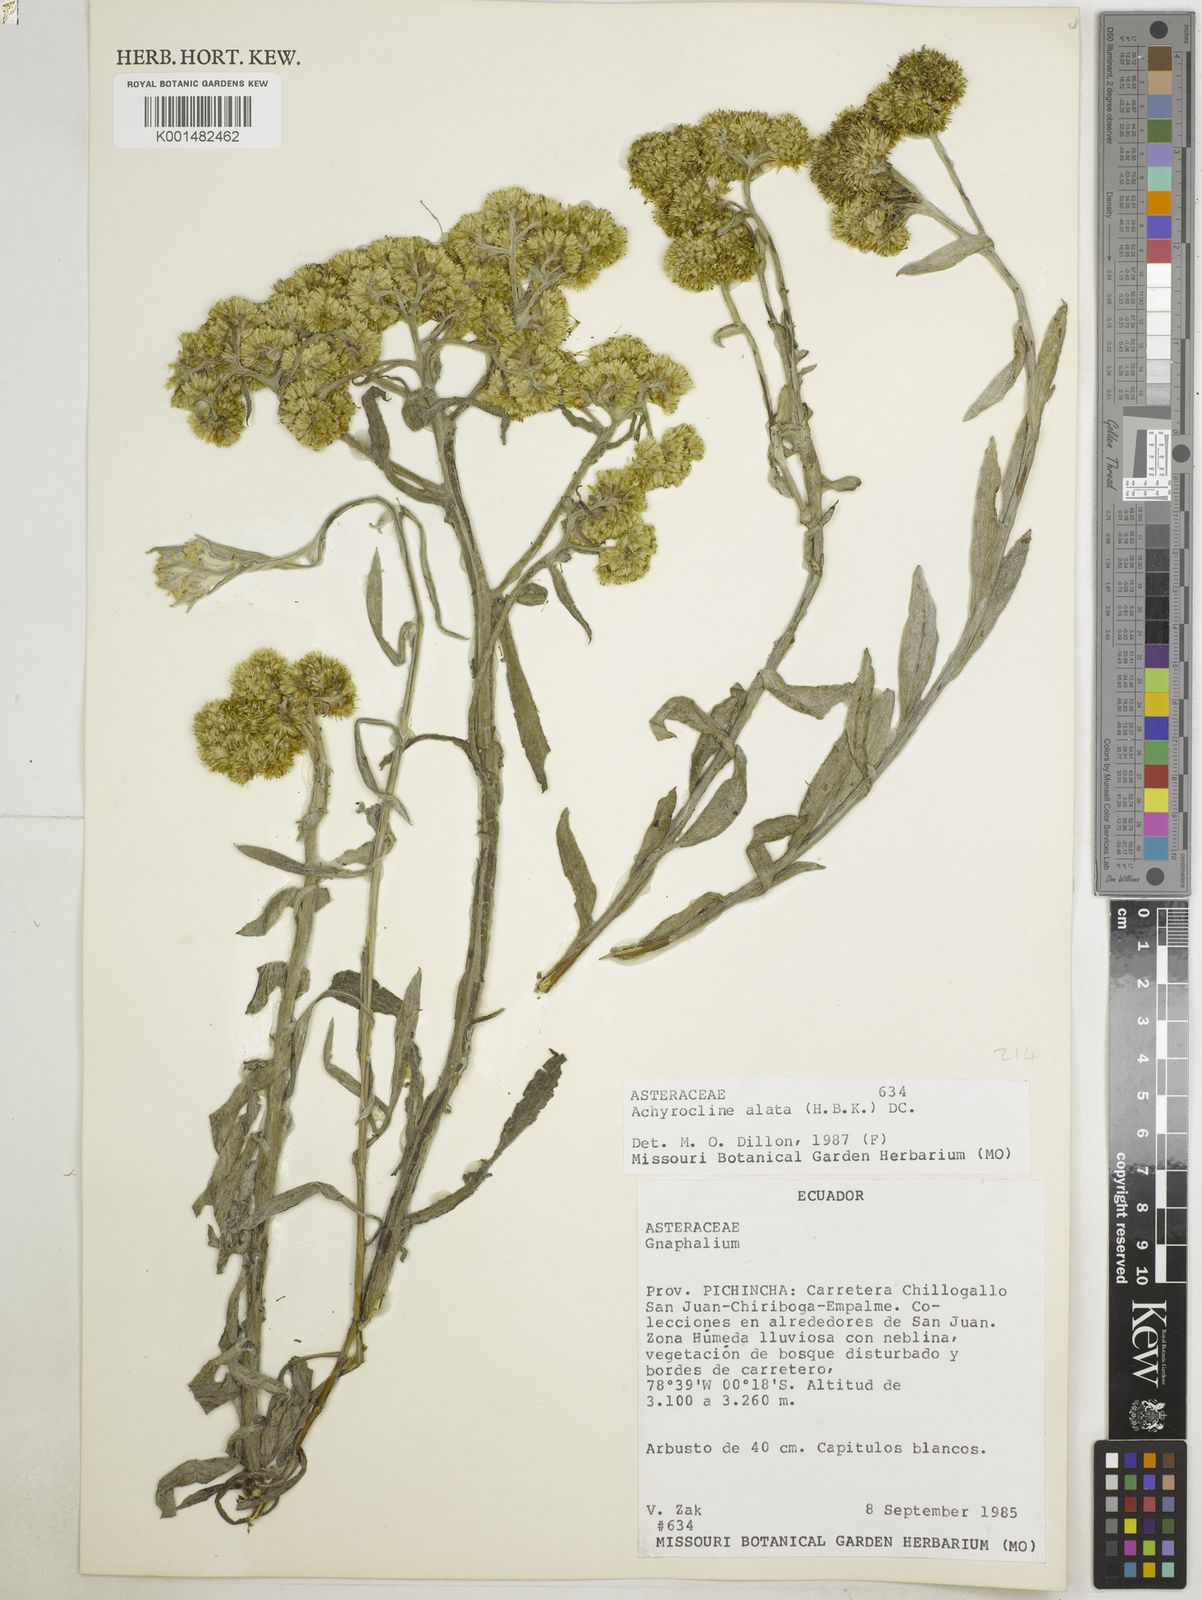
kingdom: Plantae
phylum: Tracheophyta
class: Magnoliopsida
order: Asterales
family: Asteraceae
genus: Achyrocline
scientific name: Achyrocline alata
